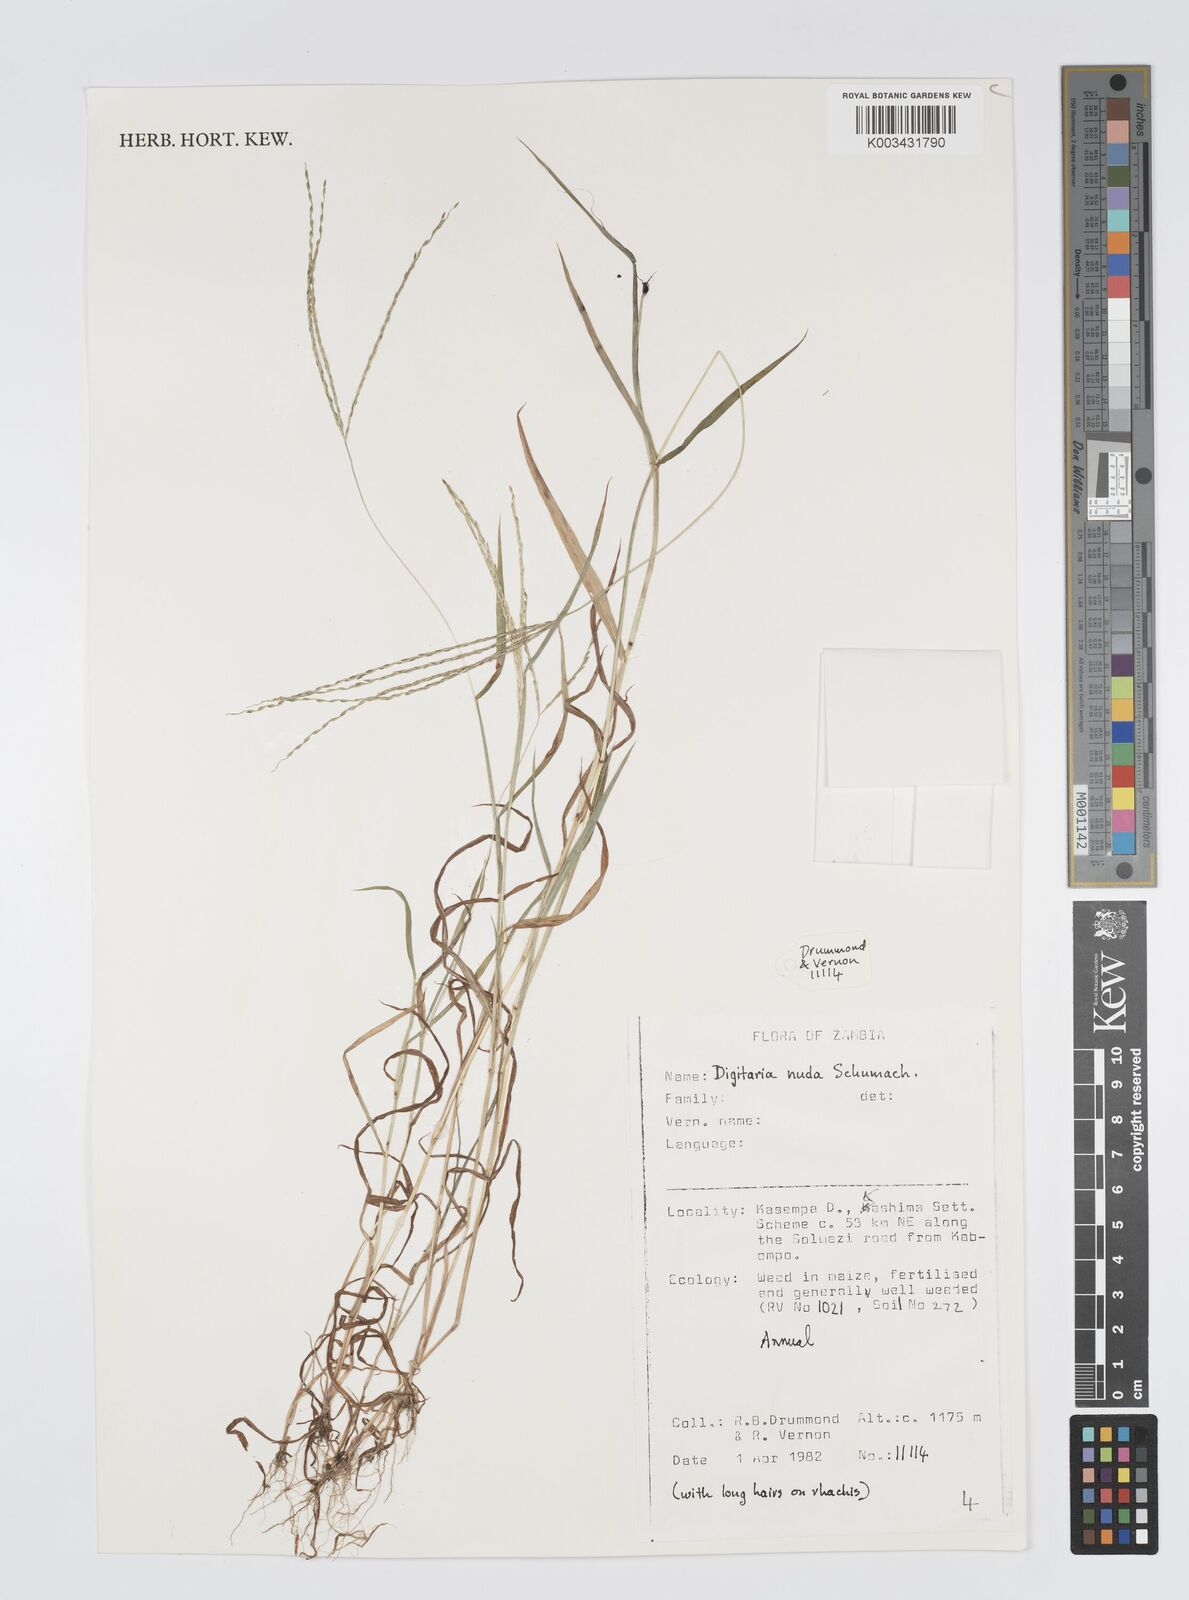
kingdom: Plantae
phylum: Tracheophyta
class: Liliopsida
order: Poales
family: Poaceae
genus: Digitaria
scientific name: Digitaria nuda
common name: Naked crabgrass
